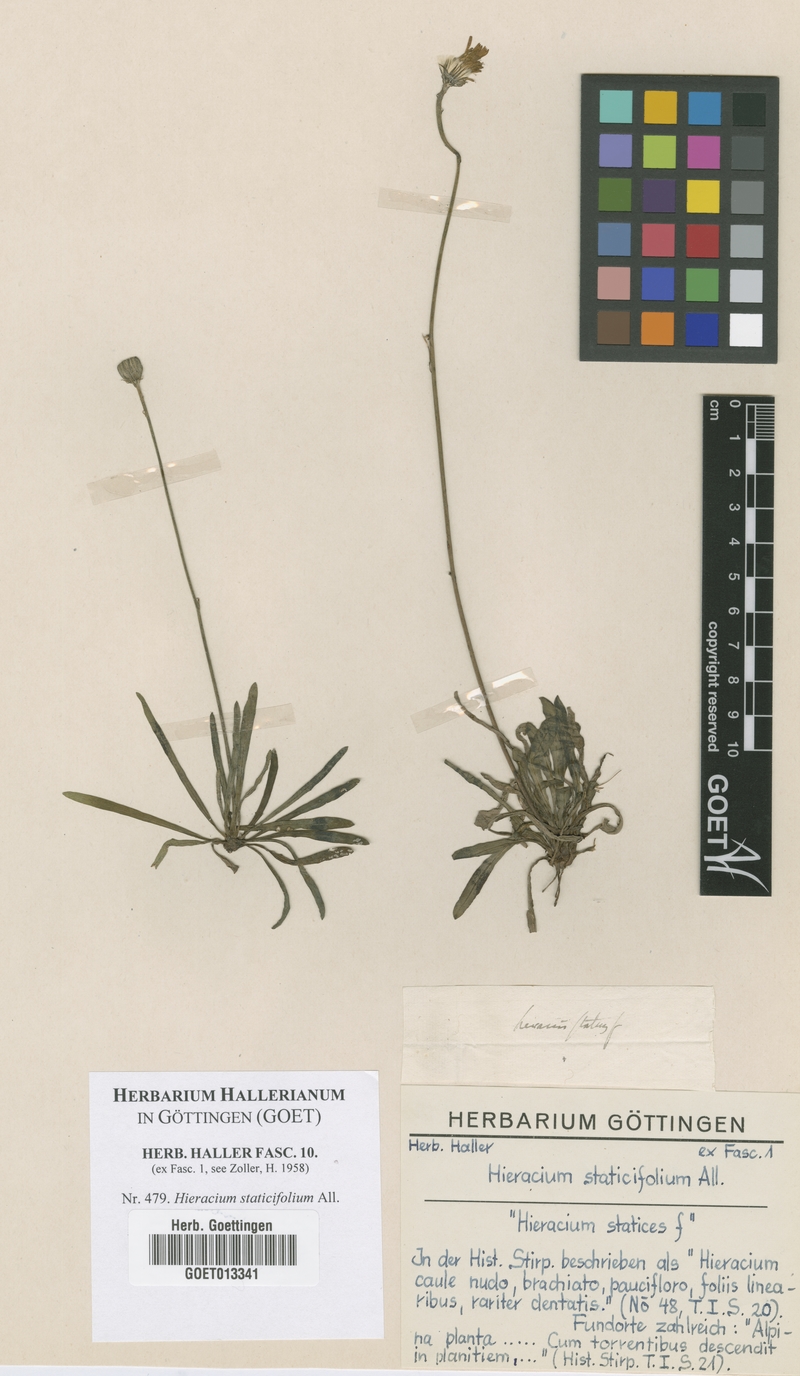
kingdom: Plantae
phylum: Tracheophyta
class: Magnoliopsida
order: Asterales
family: Asteraceae
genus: Tolpis
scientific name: Tolpis staticifolia
